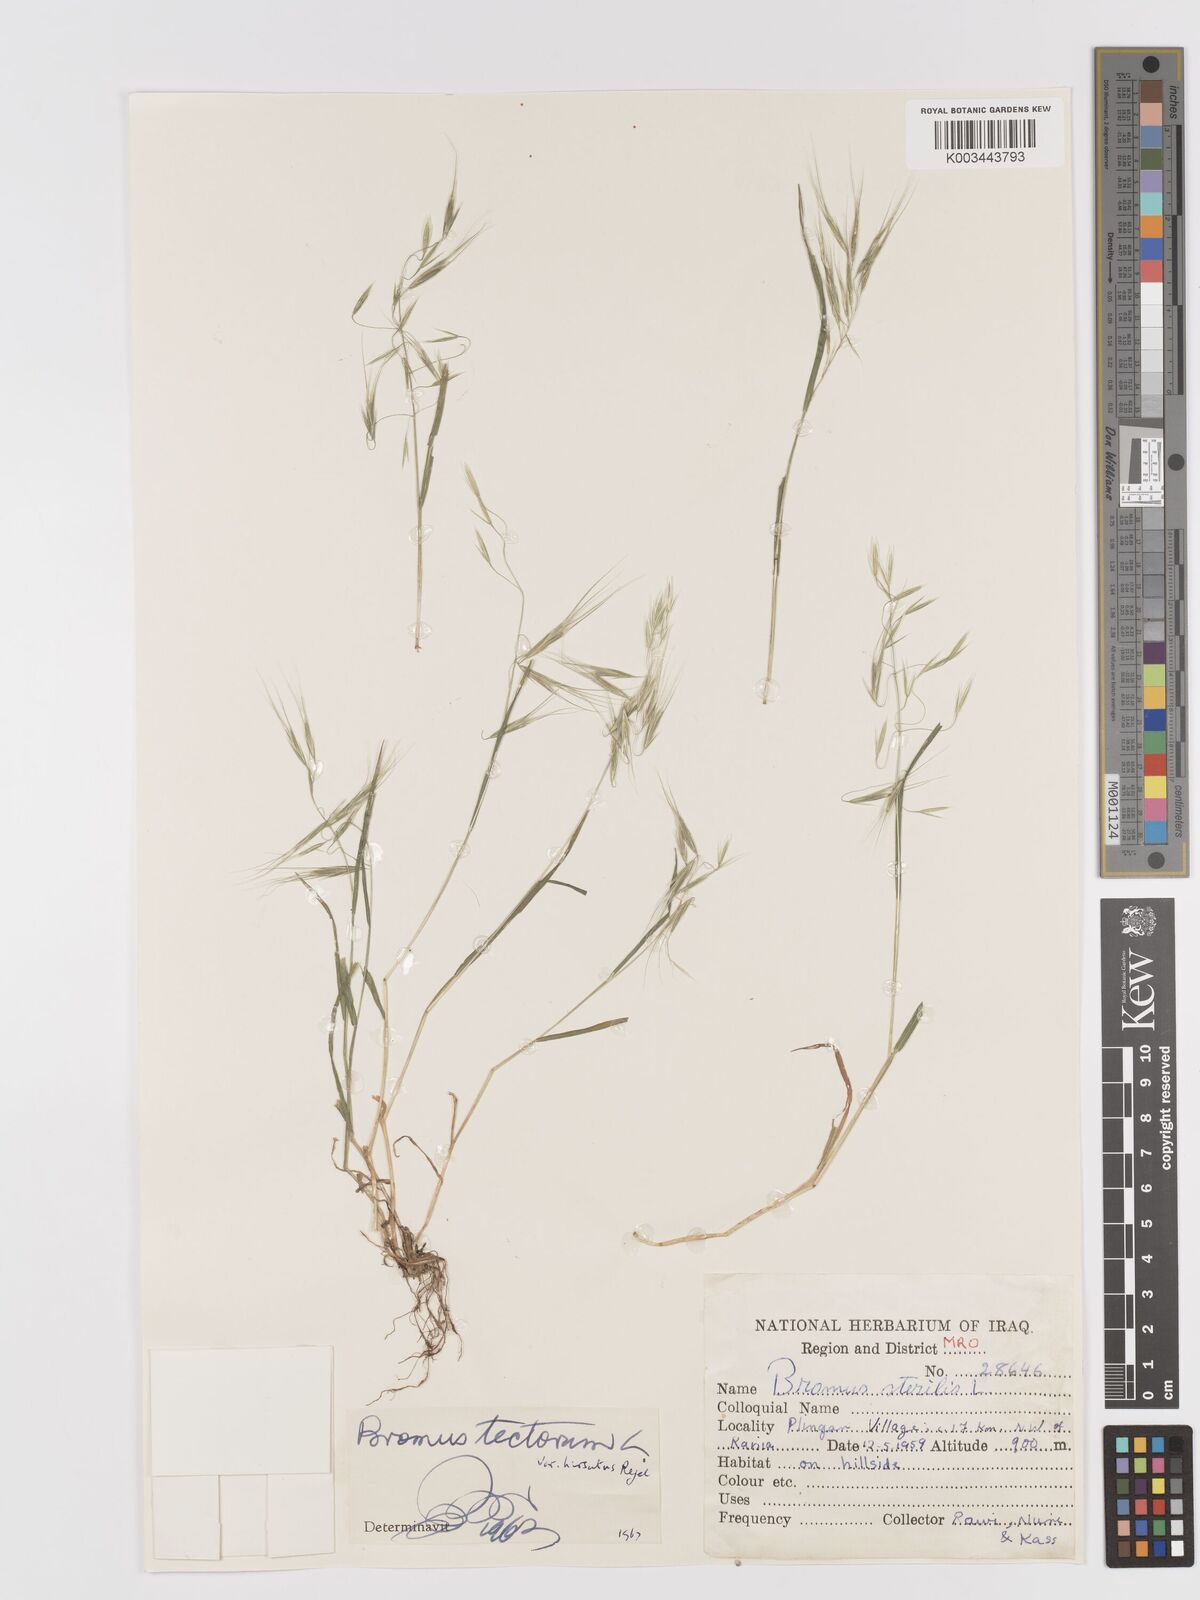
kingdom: Plantae
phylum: Tracheophyta
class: Liliopsida
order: Poales
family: Poaceae
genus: Bromus
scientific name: Bromus tectorum
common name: Cheatgrass
